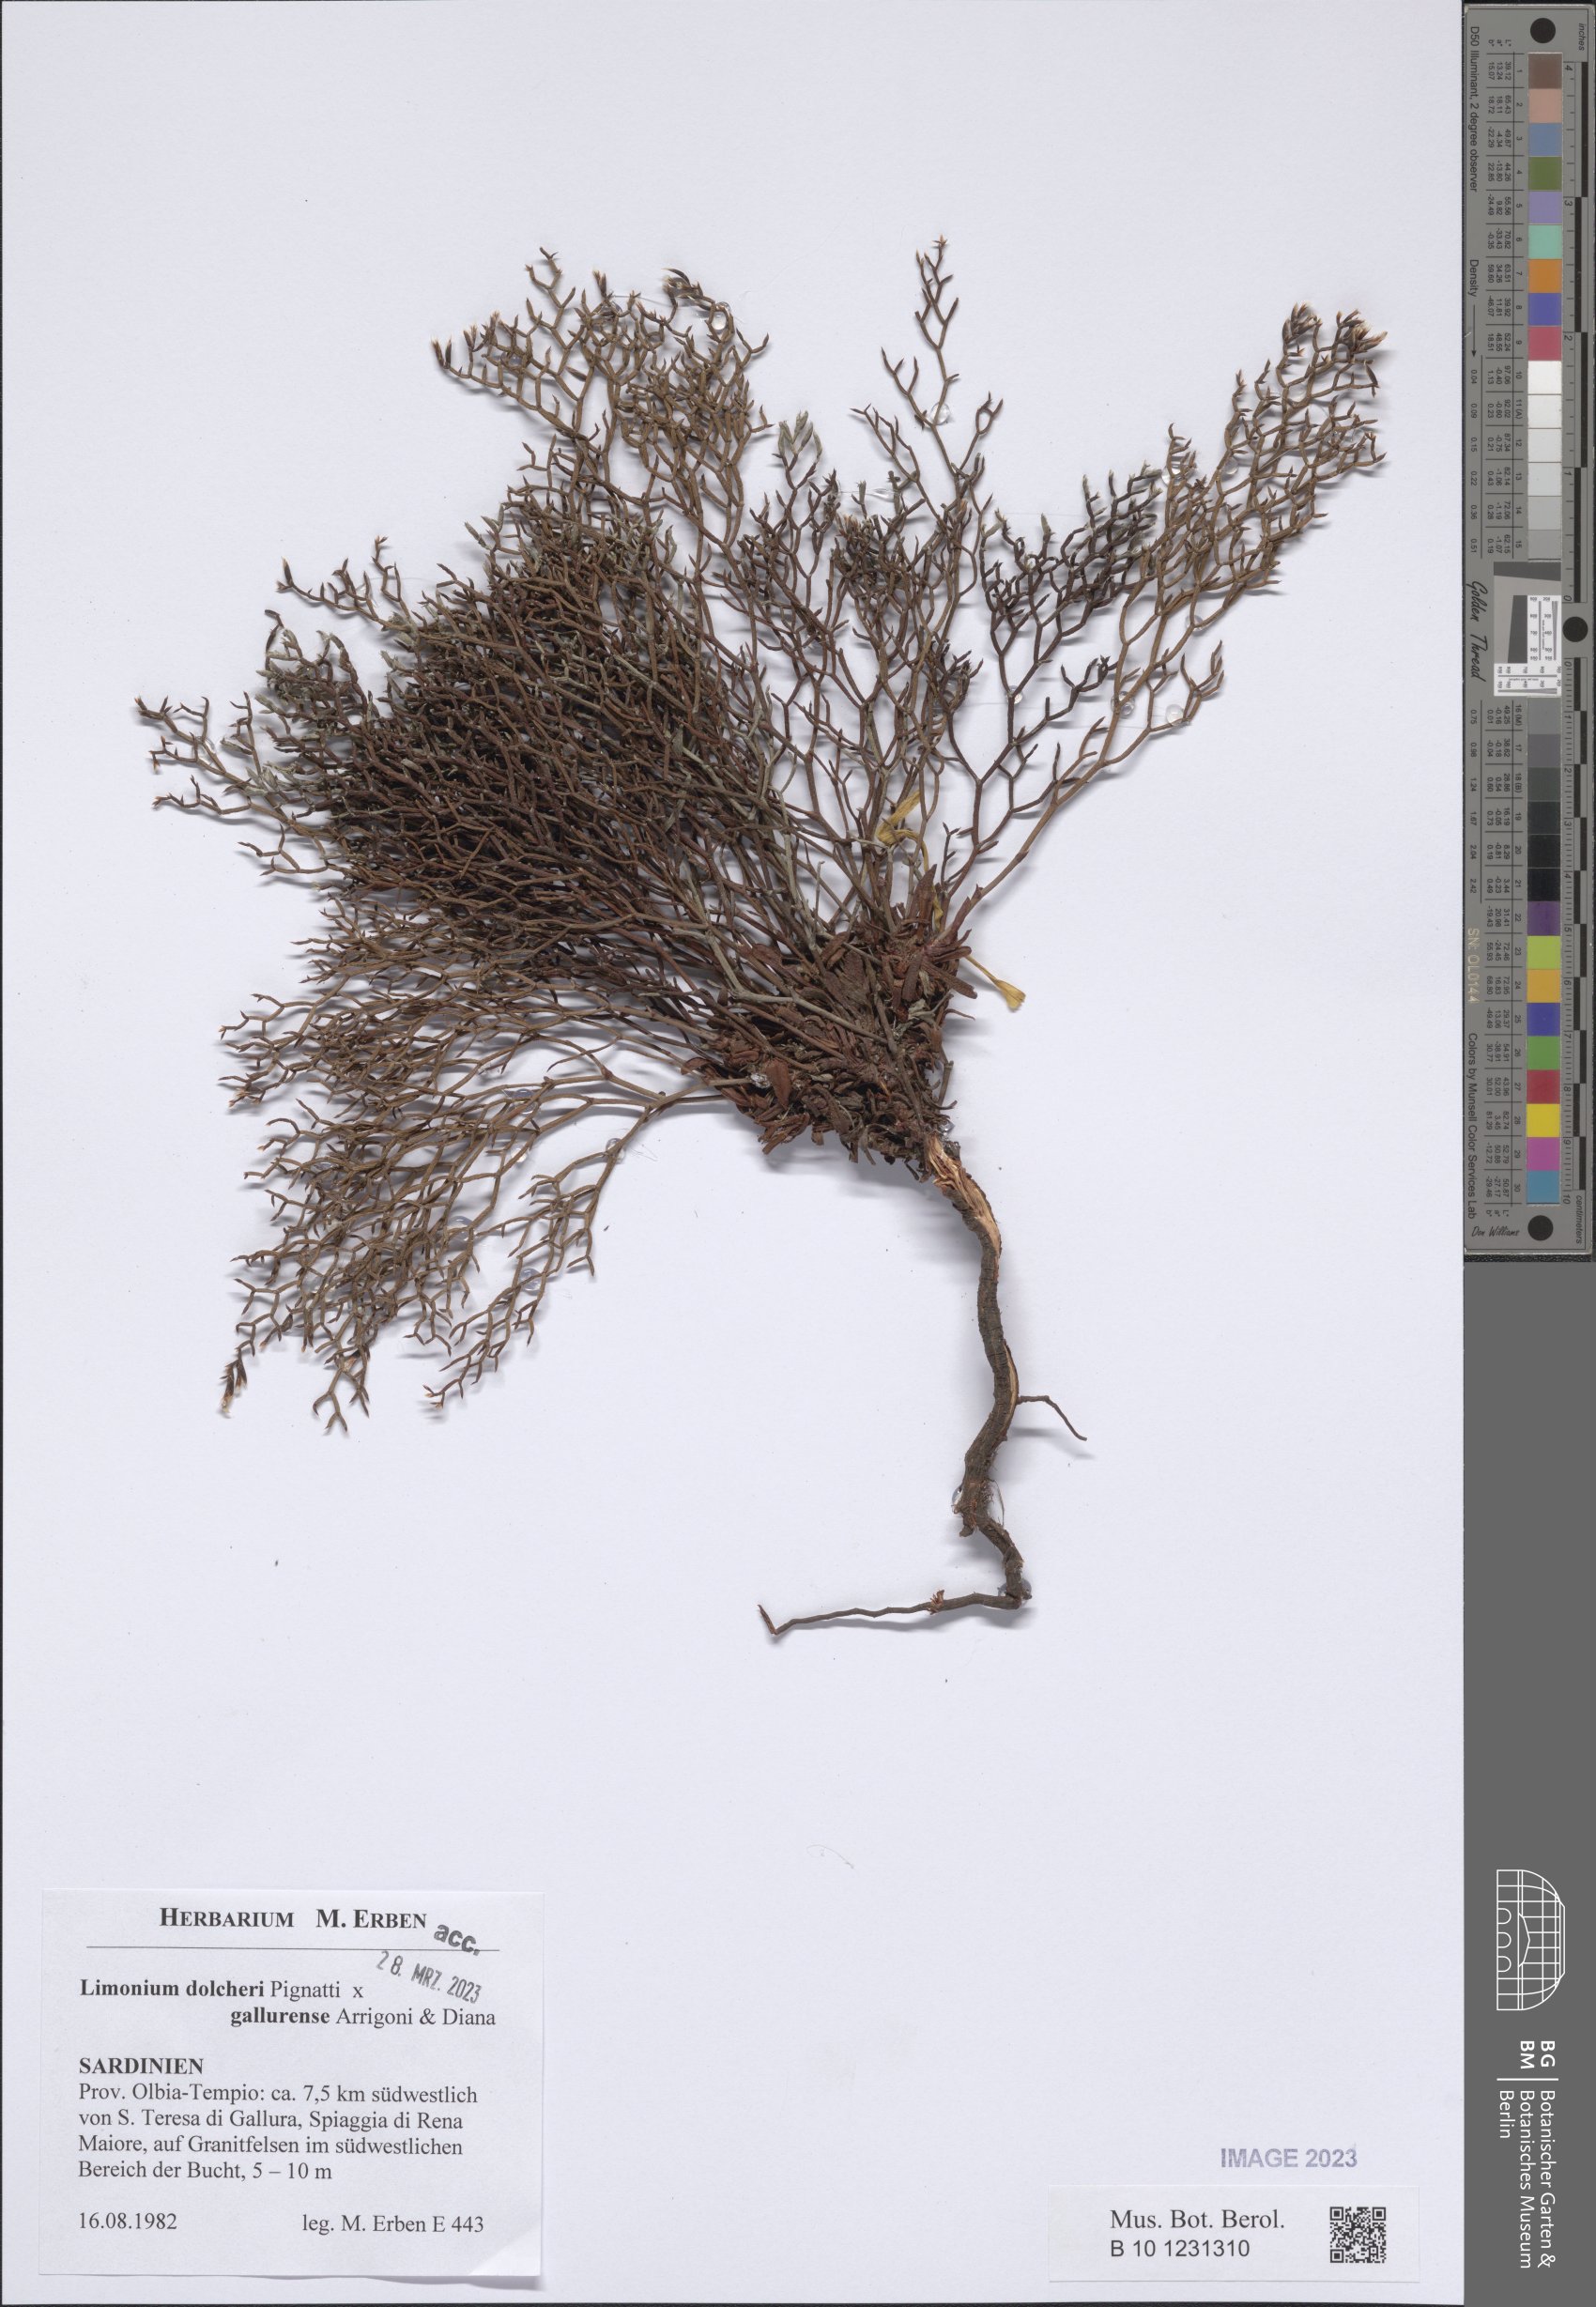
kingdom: Plantae
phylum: Tracheophyta
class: Magnoliopsida
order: Caryophyllales
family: Plumbaginaceae
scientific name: Plumbaginaceae
